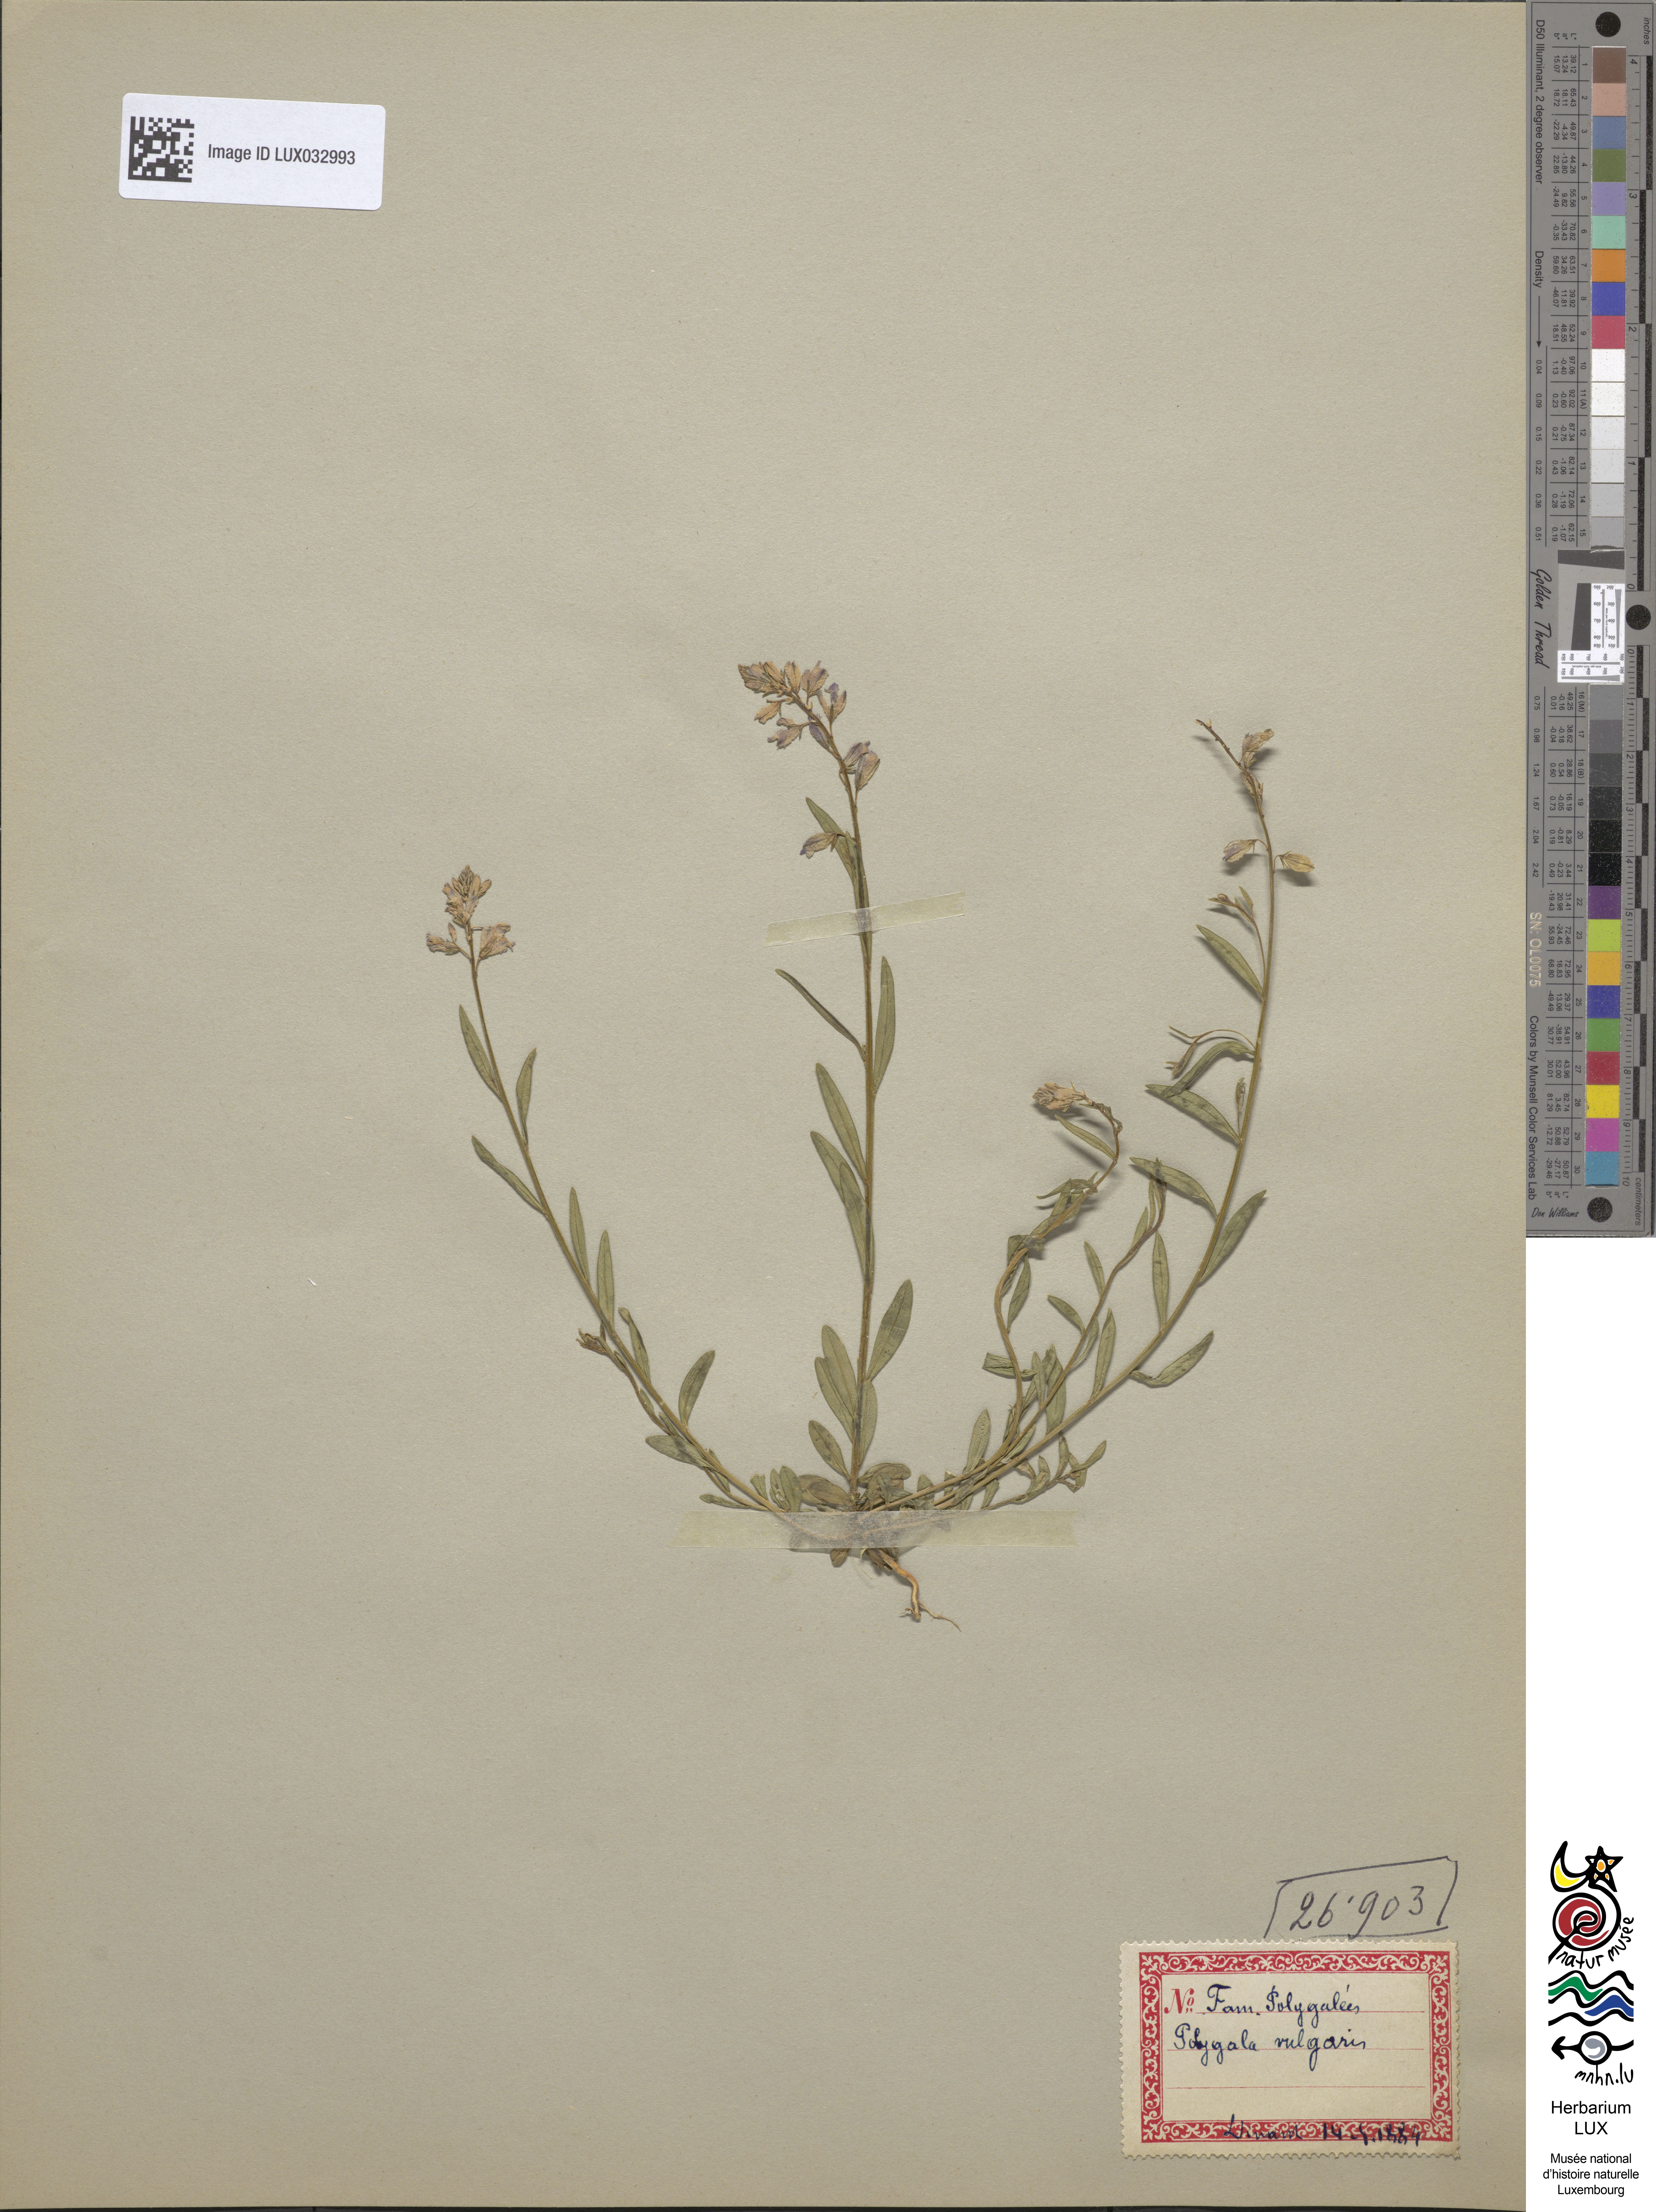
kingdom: Plantae
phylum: Tracheophyta
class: Magnoliopsida
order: Fabales
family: Polygalaceae
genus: Polygala
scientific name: Polygala vulgaris
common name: Common milkwort
